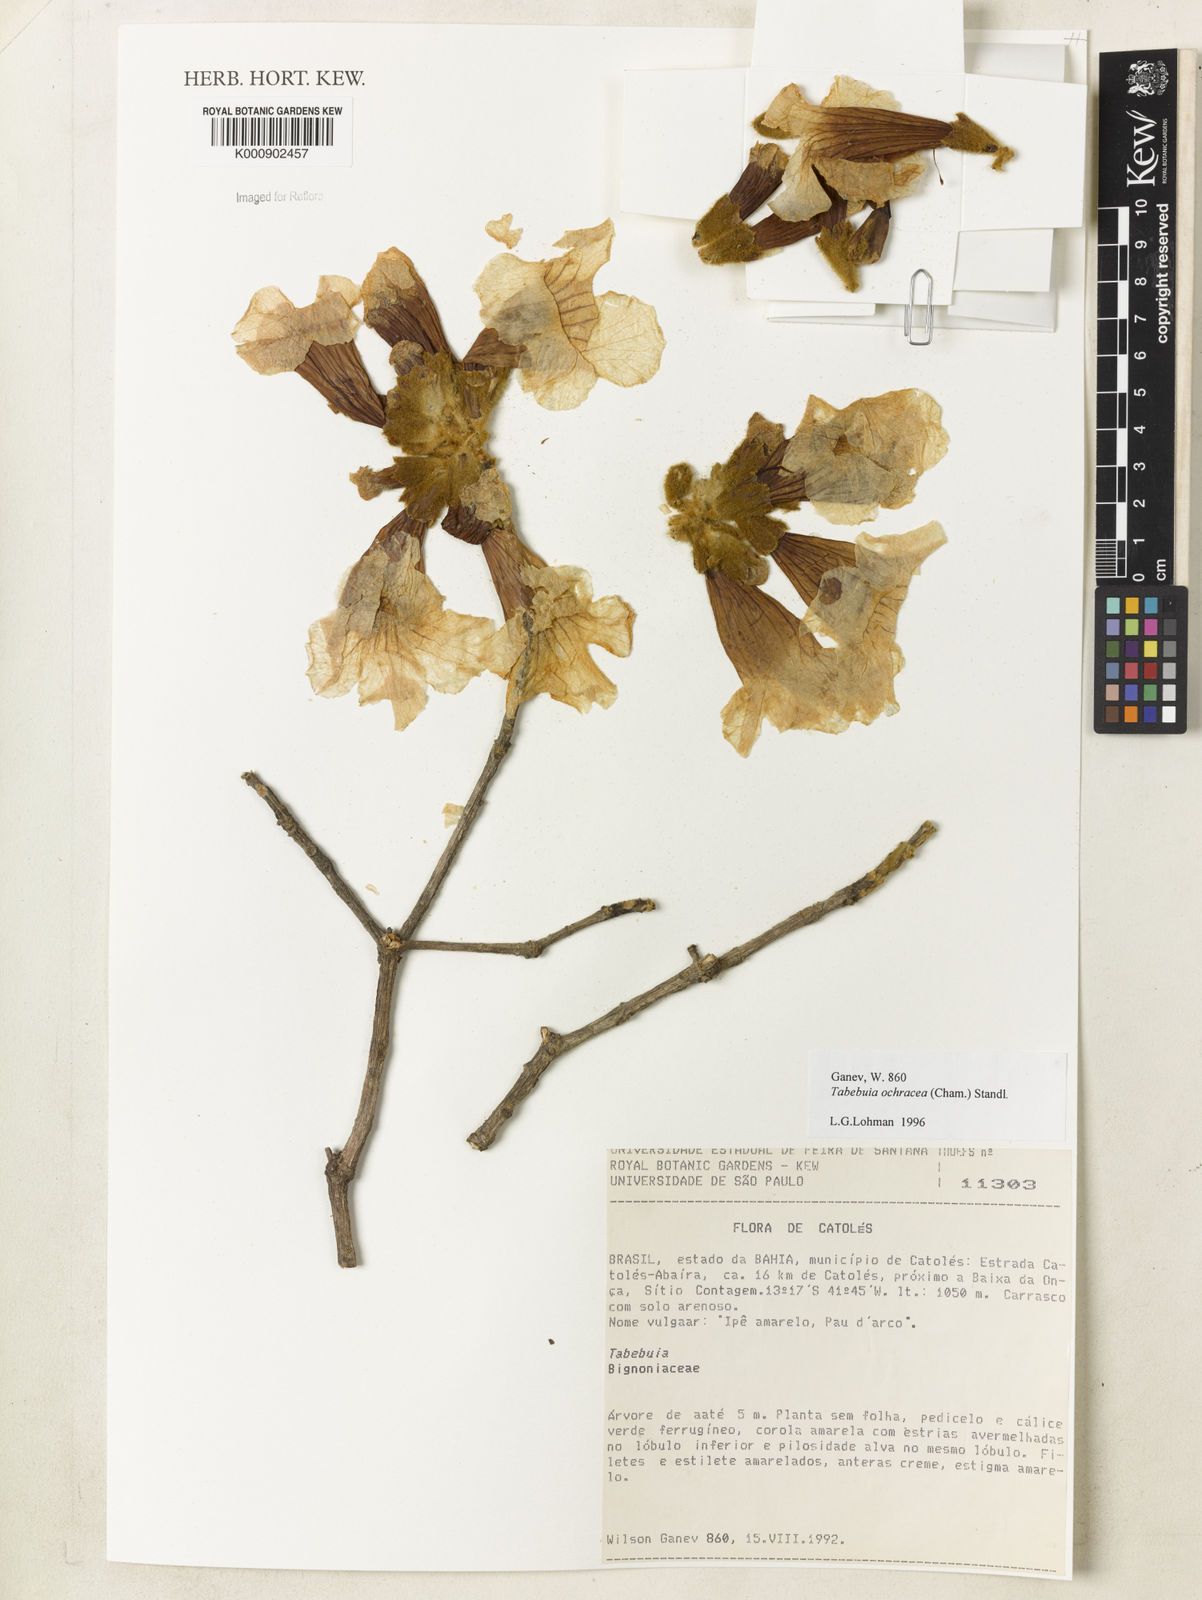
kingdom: Plantae
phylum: Tracheophyta
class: Magnoliopsida
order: Lamiales
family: Bignoniaceae
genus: Handroanthus
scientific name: Handroanthus ochraceus
